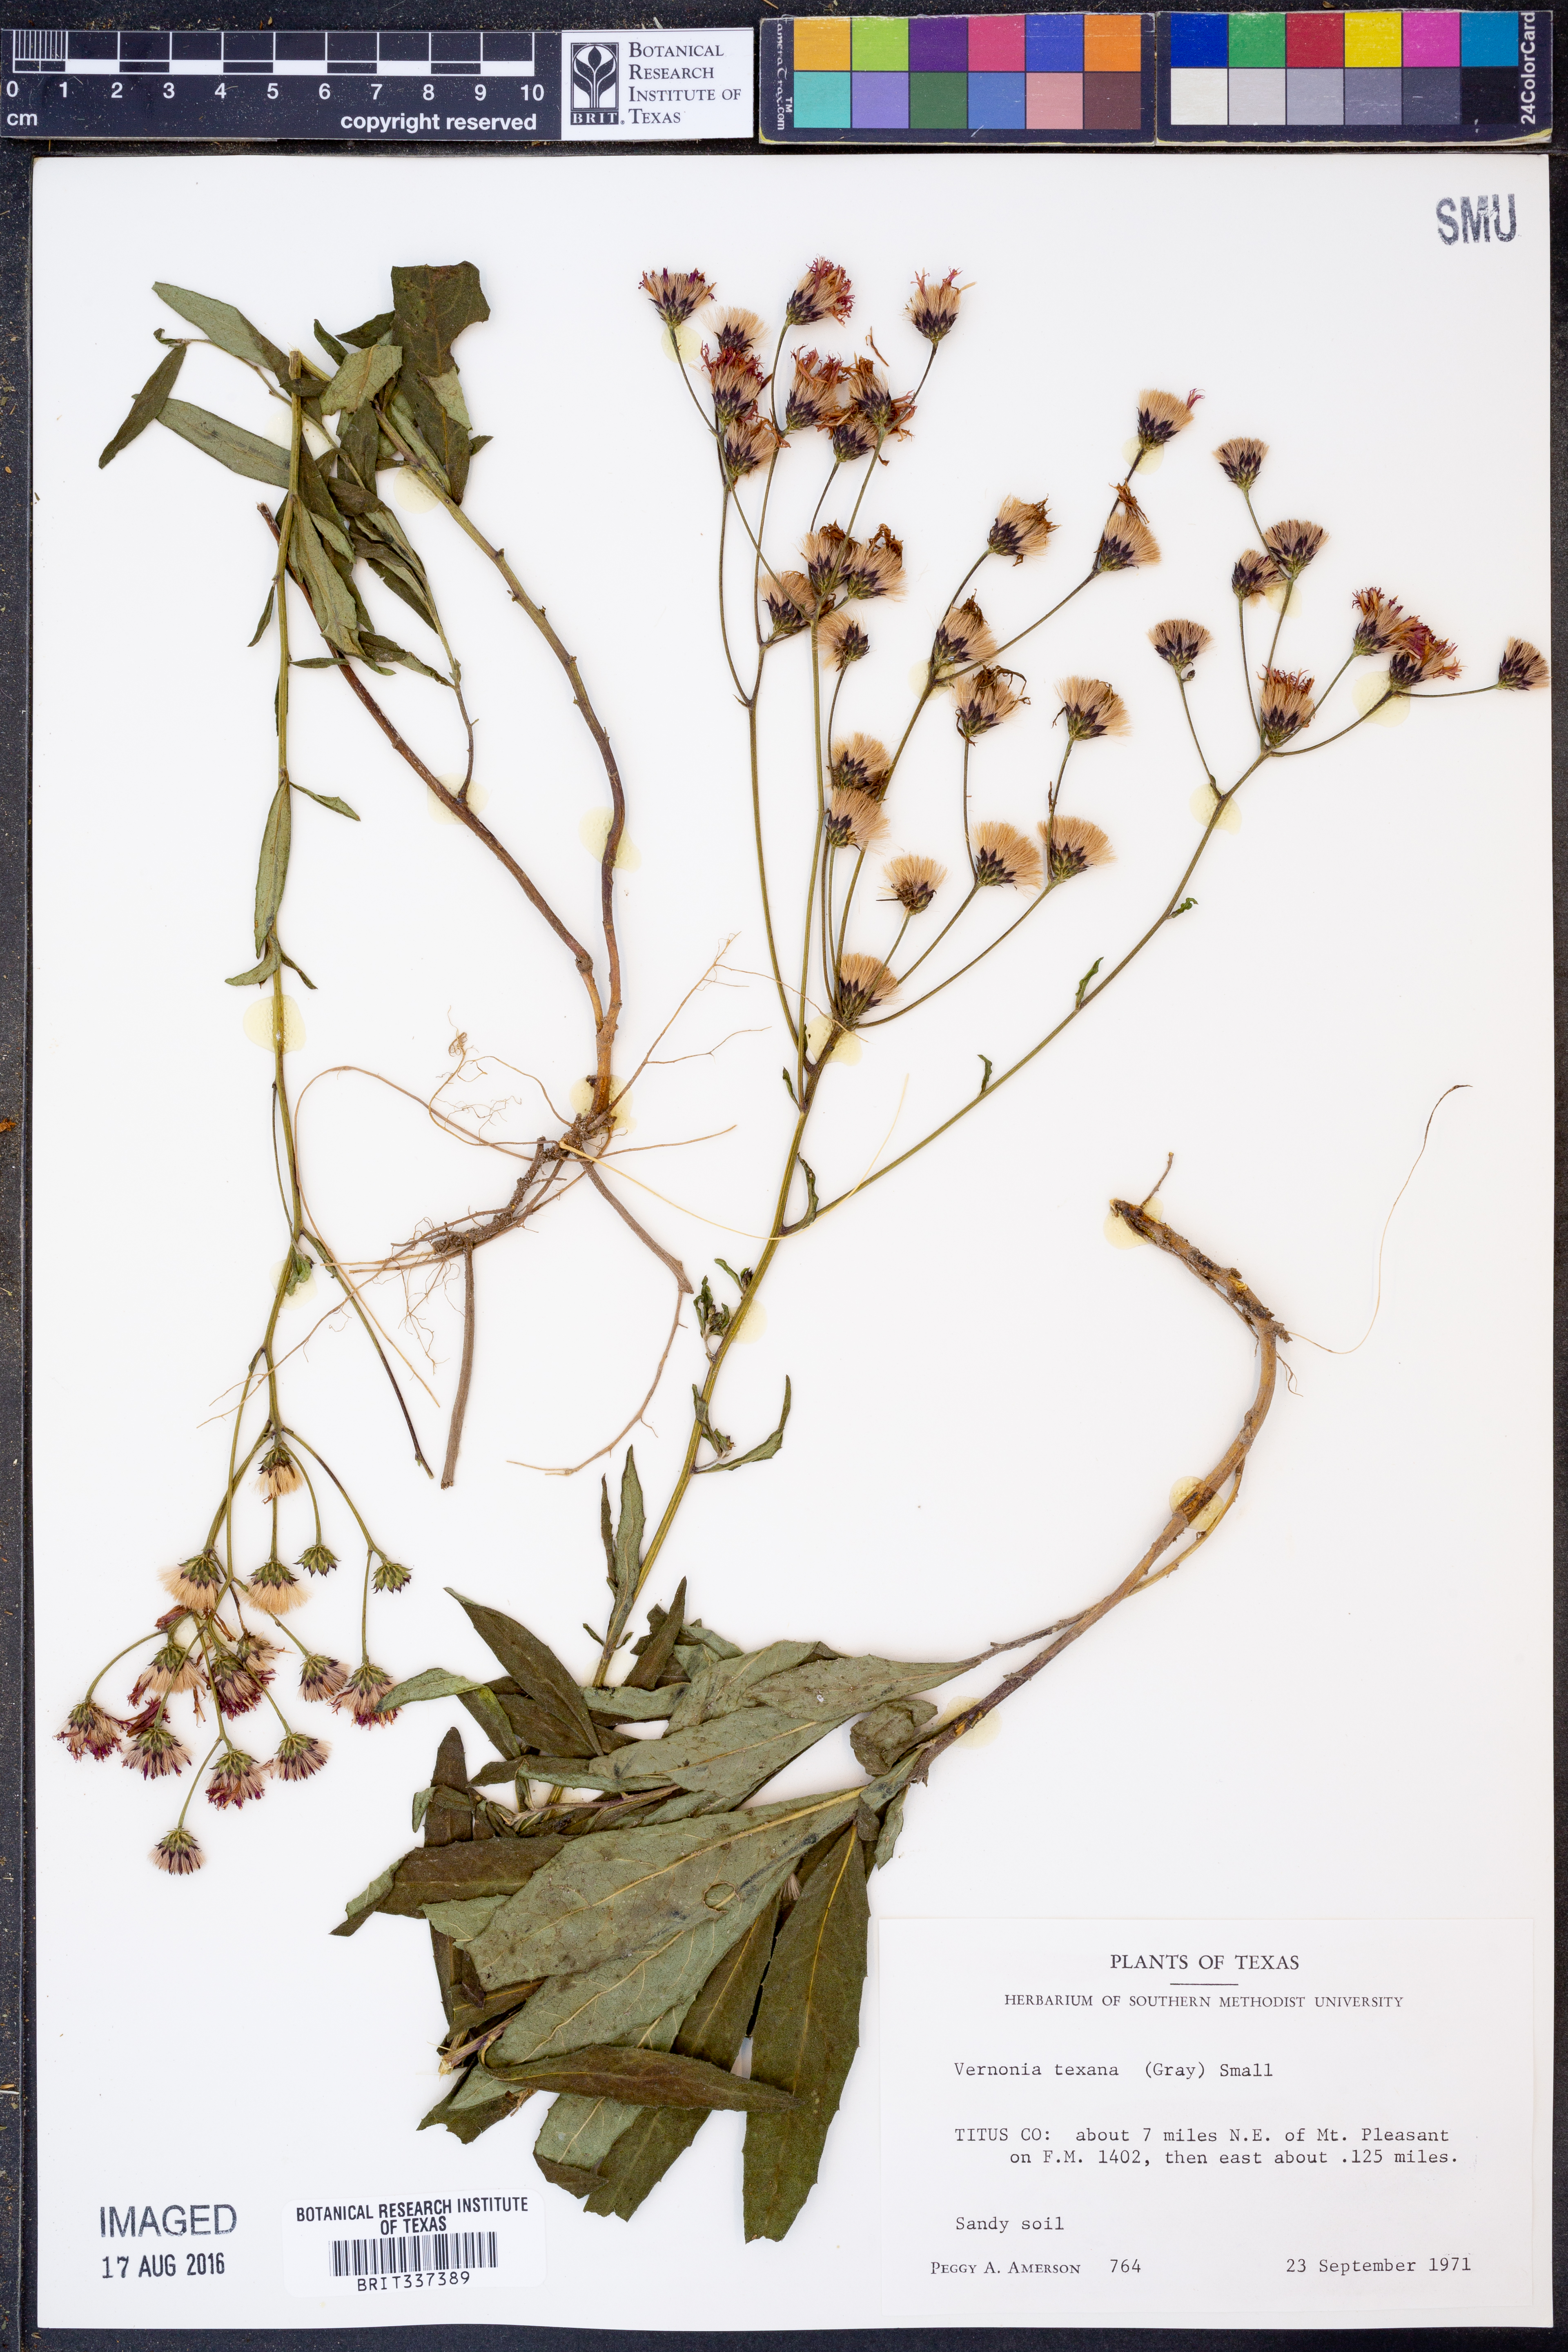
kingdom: Plantae
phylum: Tracheophyta
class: Magnoliopsida
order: Asterales
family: Asteraceae
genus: Vernonia
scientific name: Vernonia texana
